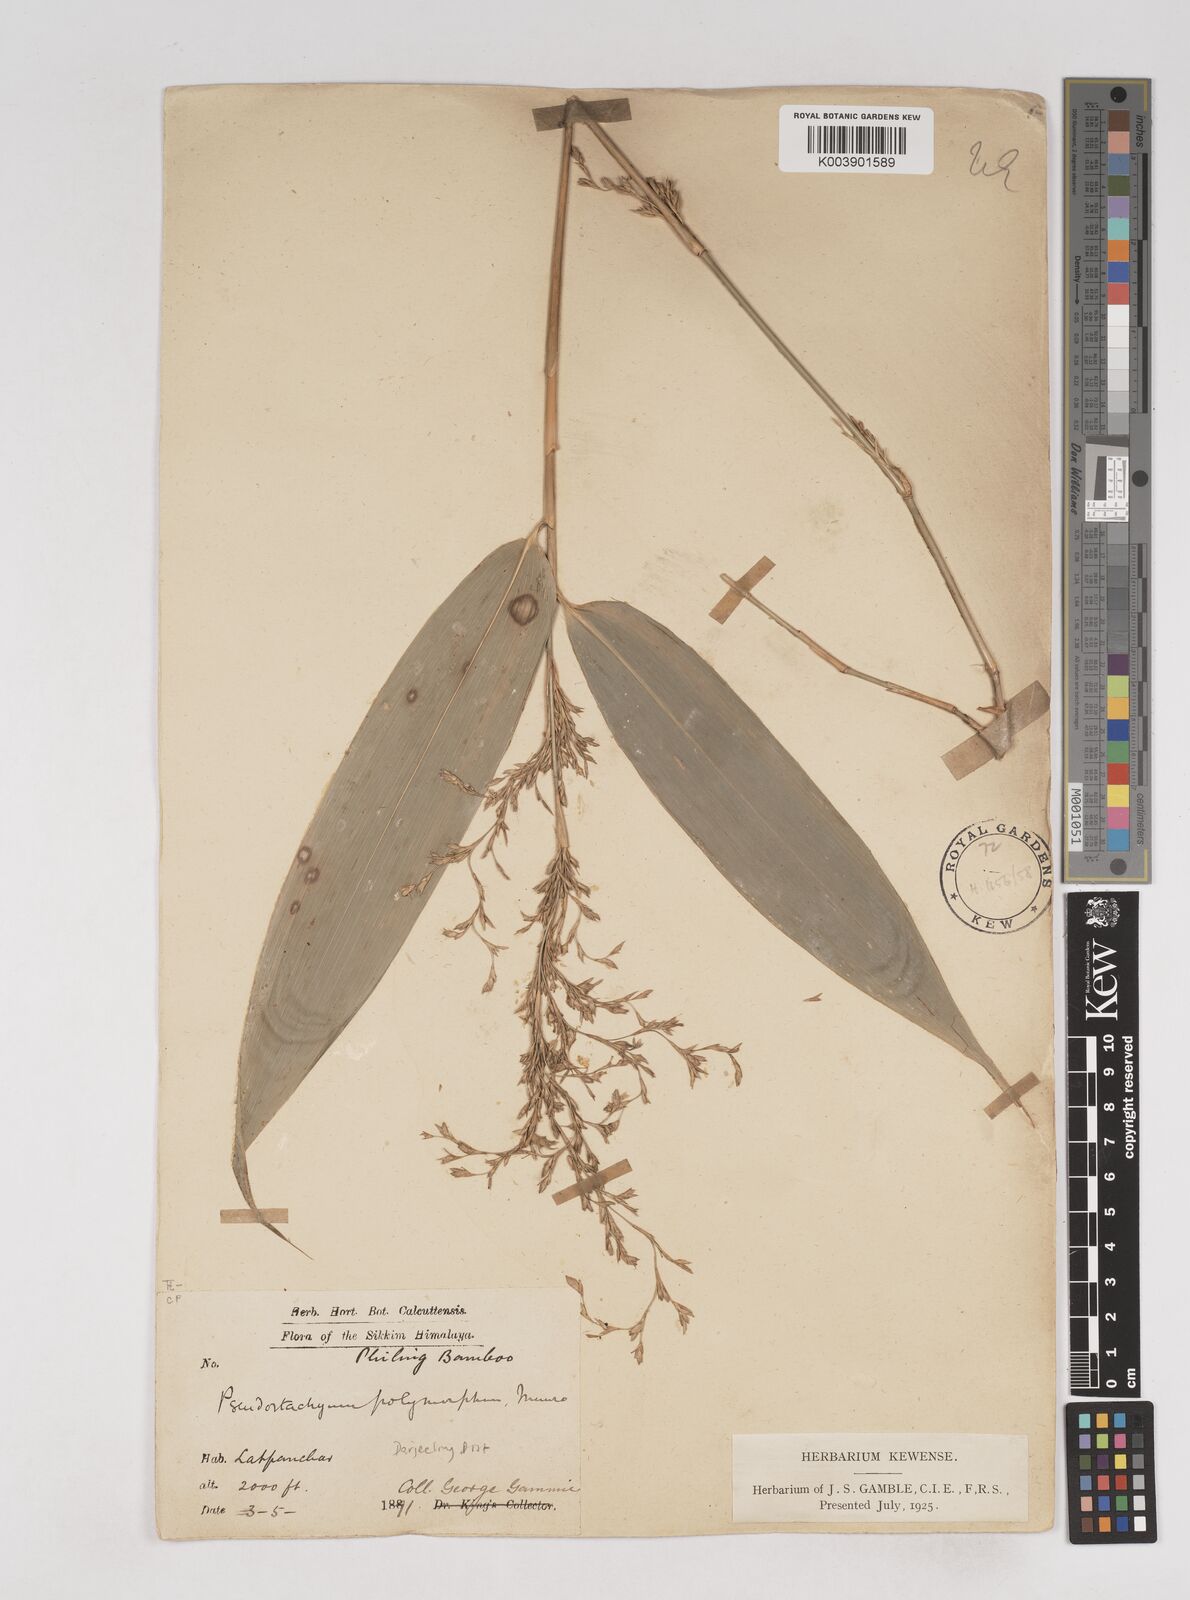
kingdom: Plantae
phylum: Tracheophyta
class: Liliopsida
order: Poales
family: Poaceae
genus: Pseudostachyum
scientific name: Pseudostachyum polymorphum
